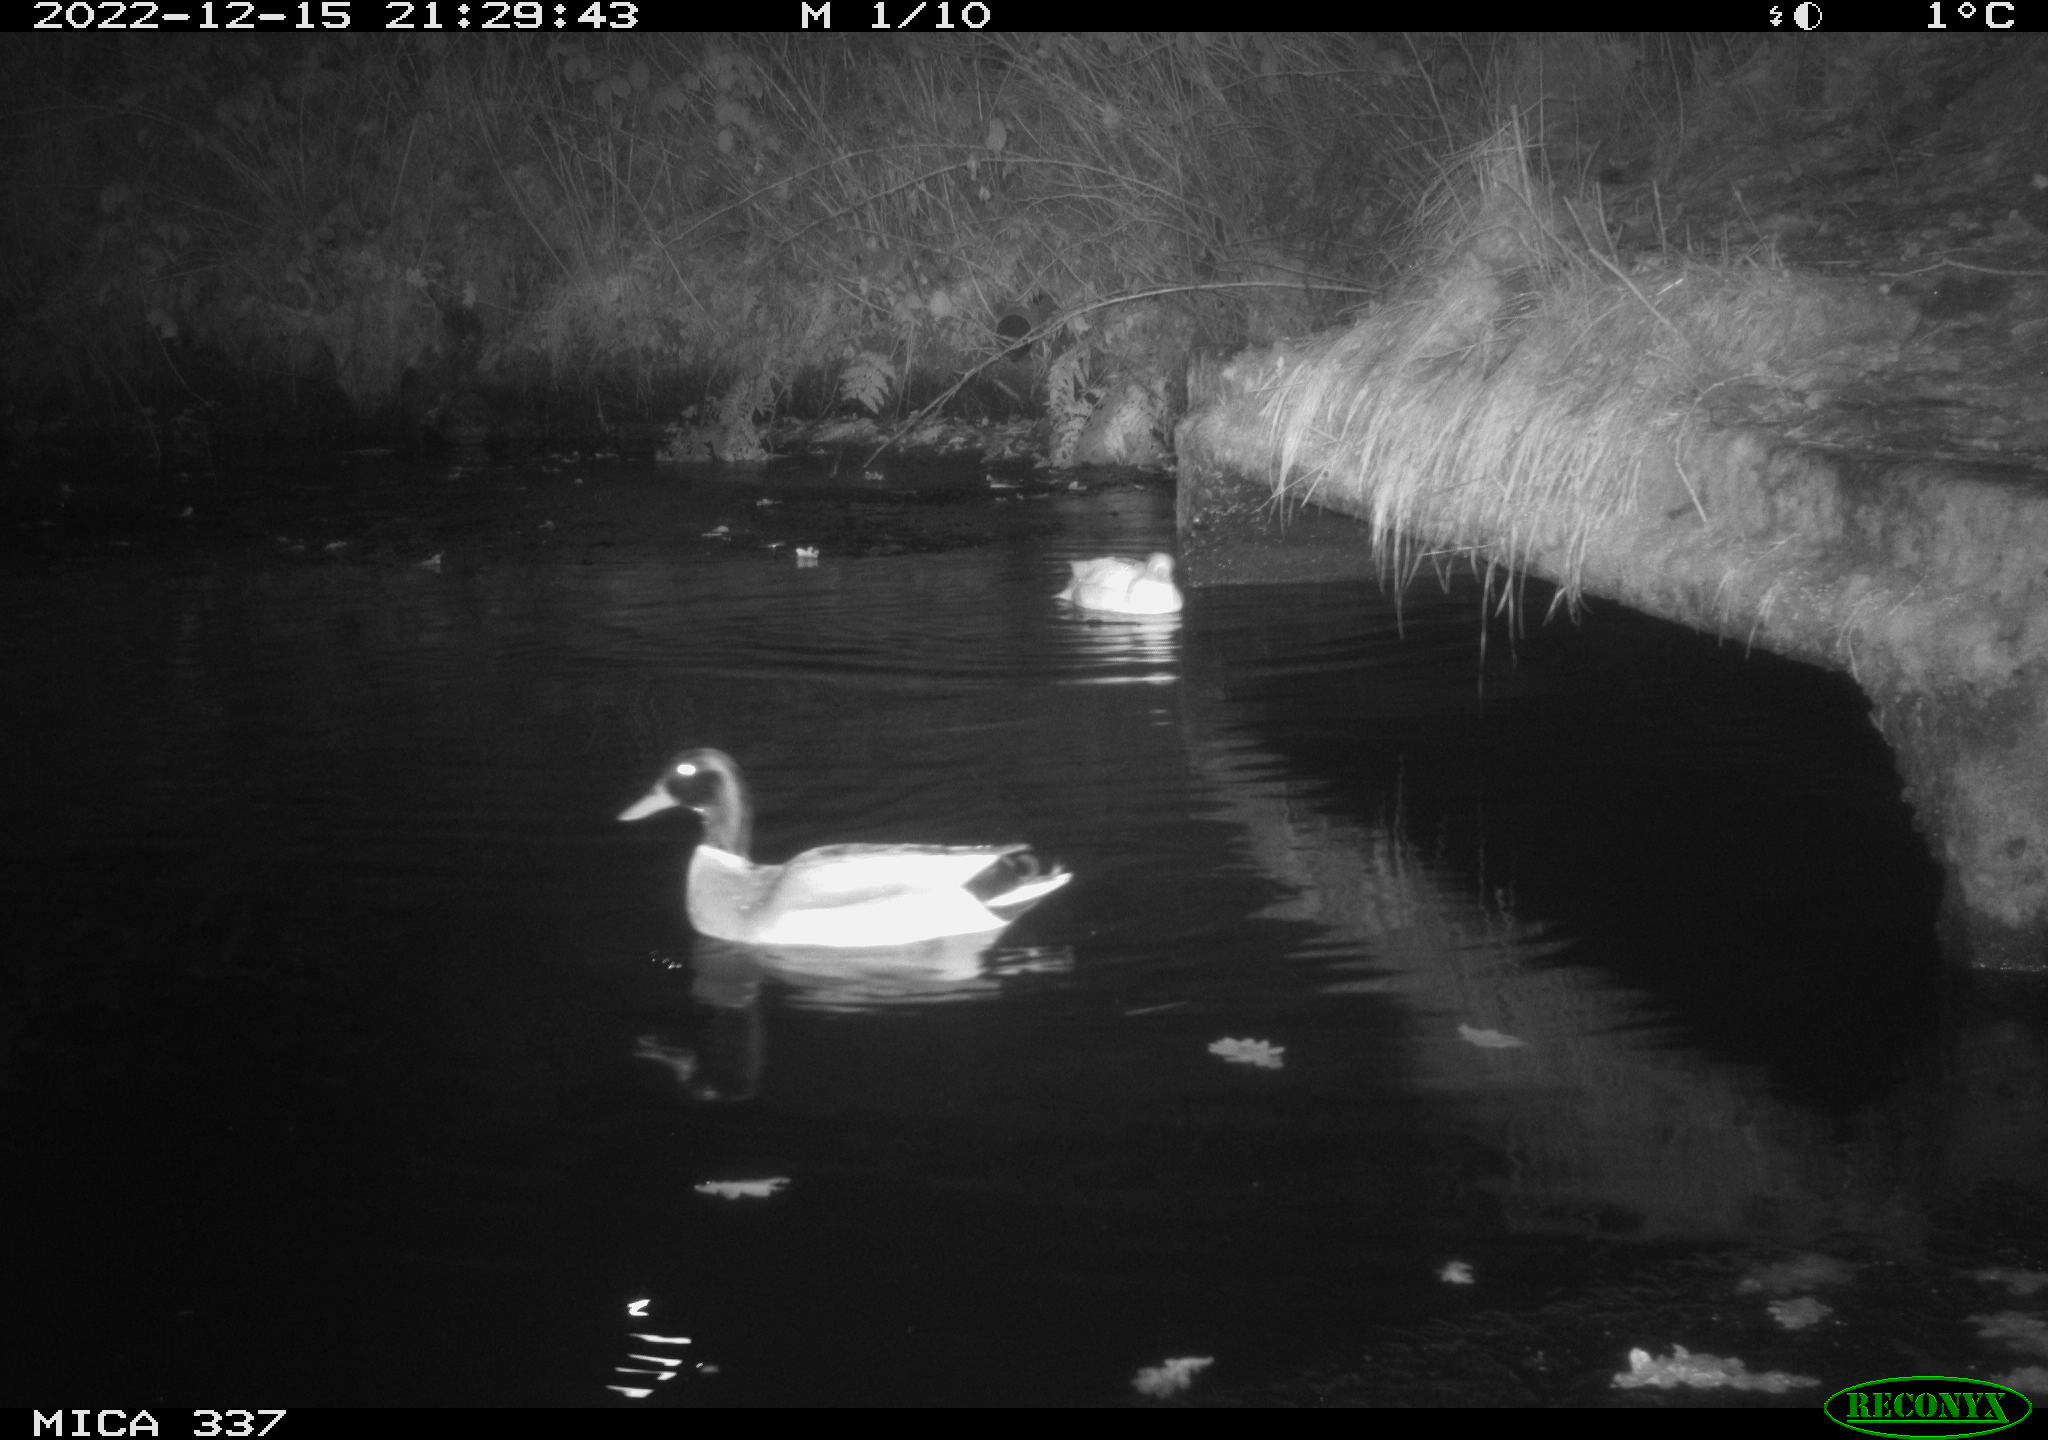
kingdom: Animalia
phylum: Chordata
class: Aves
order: Anseriformes
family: Anatidae
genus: Anas
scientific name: Anas
